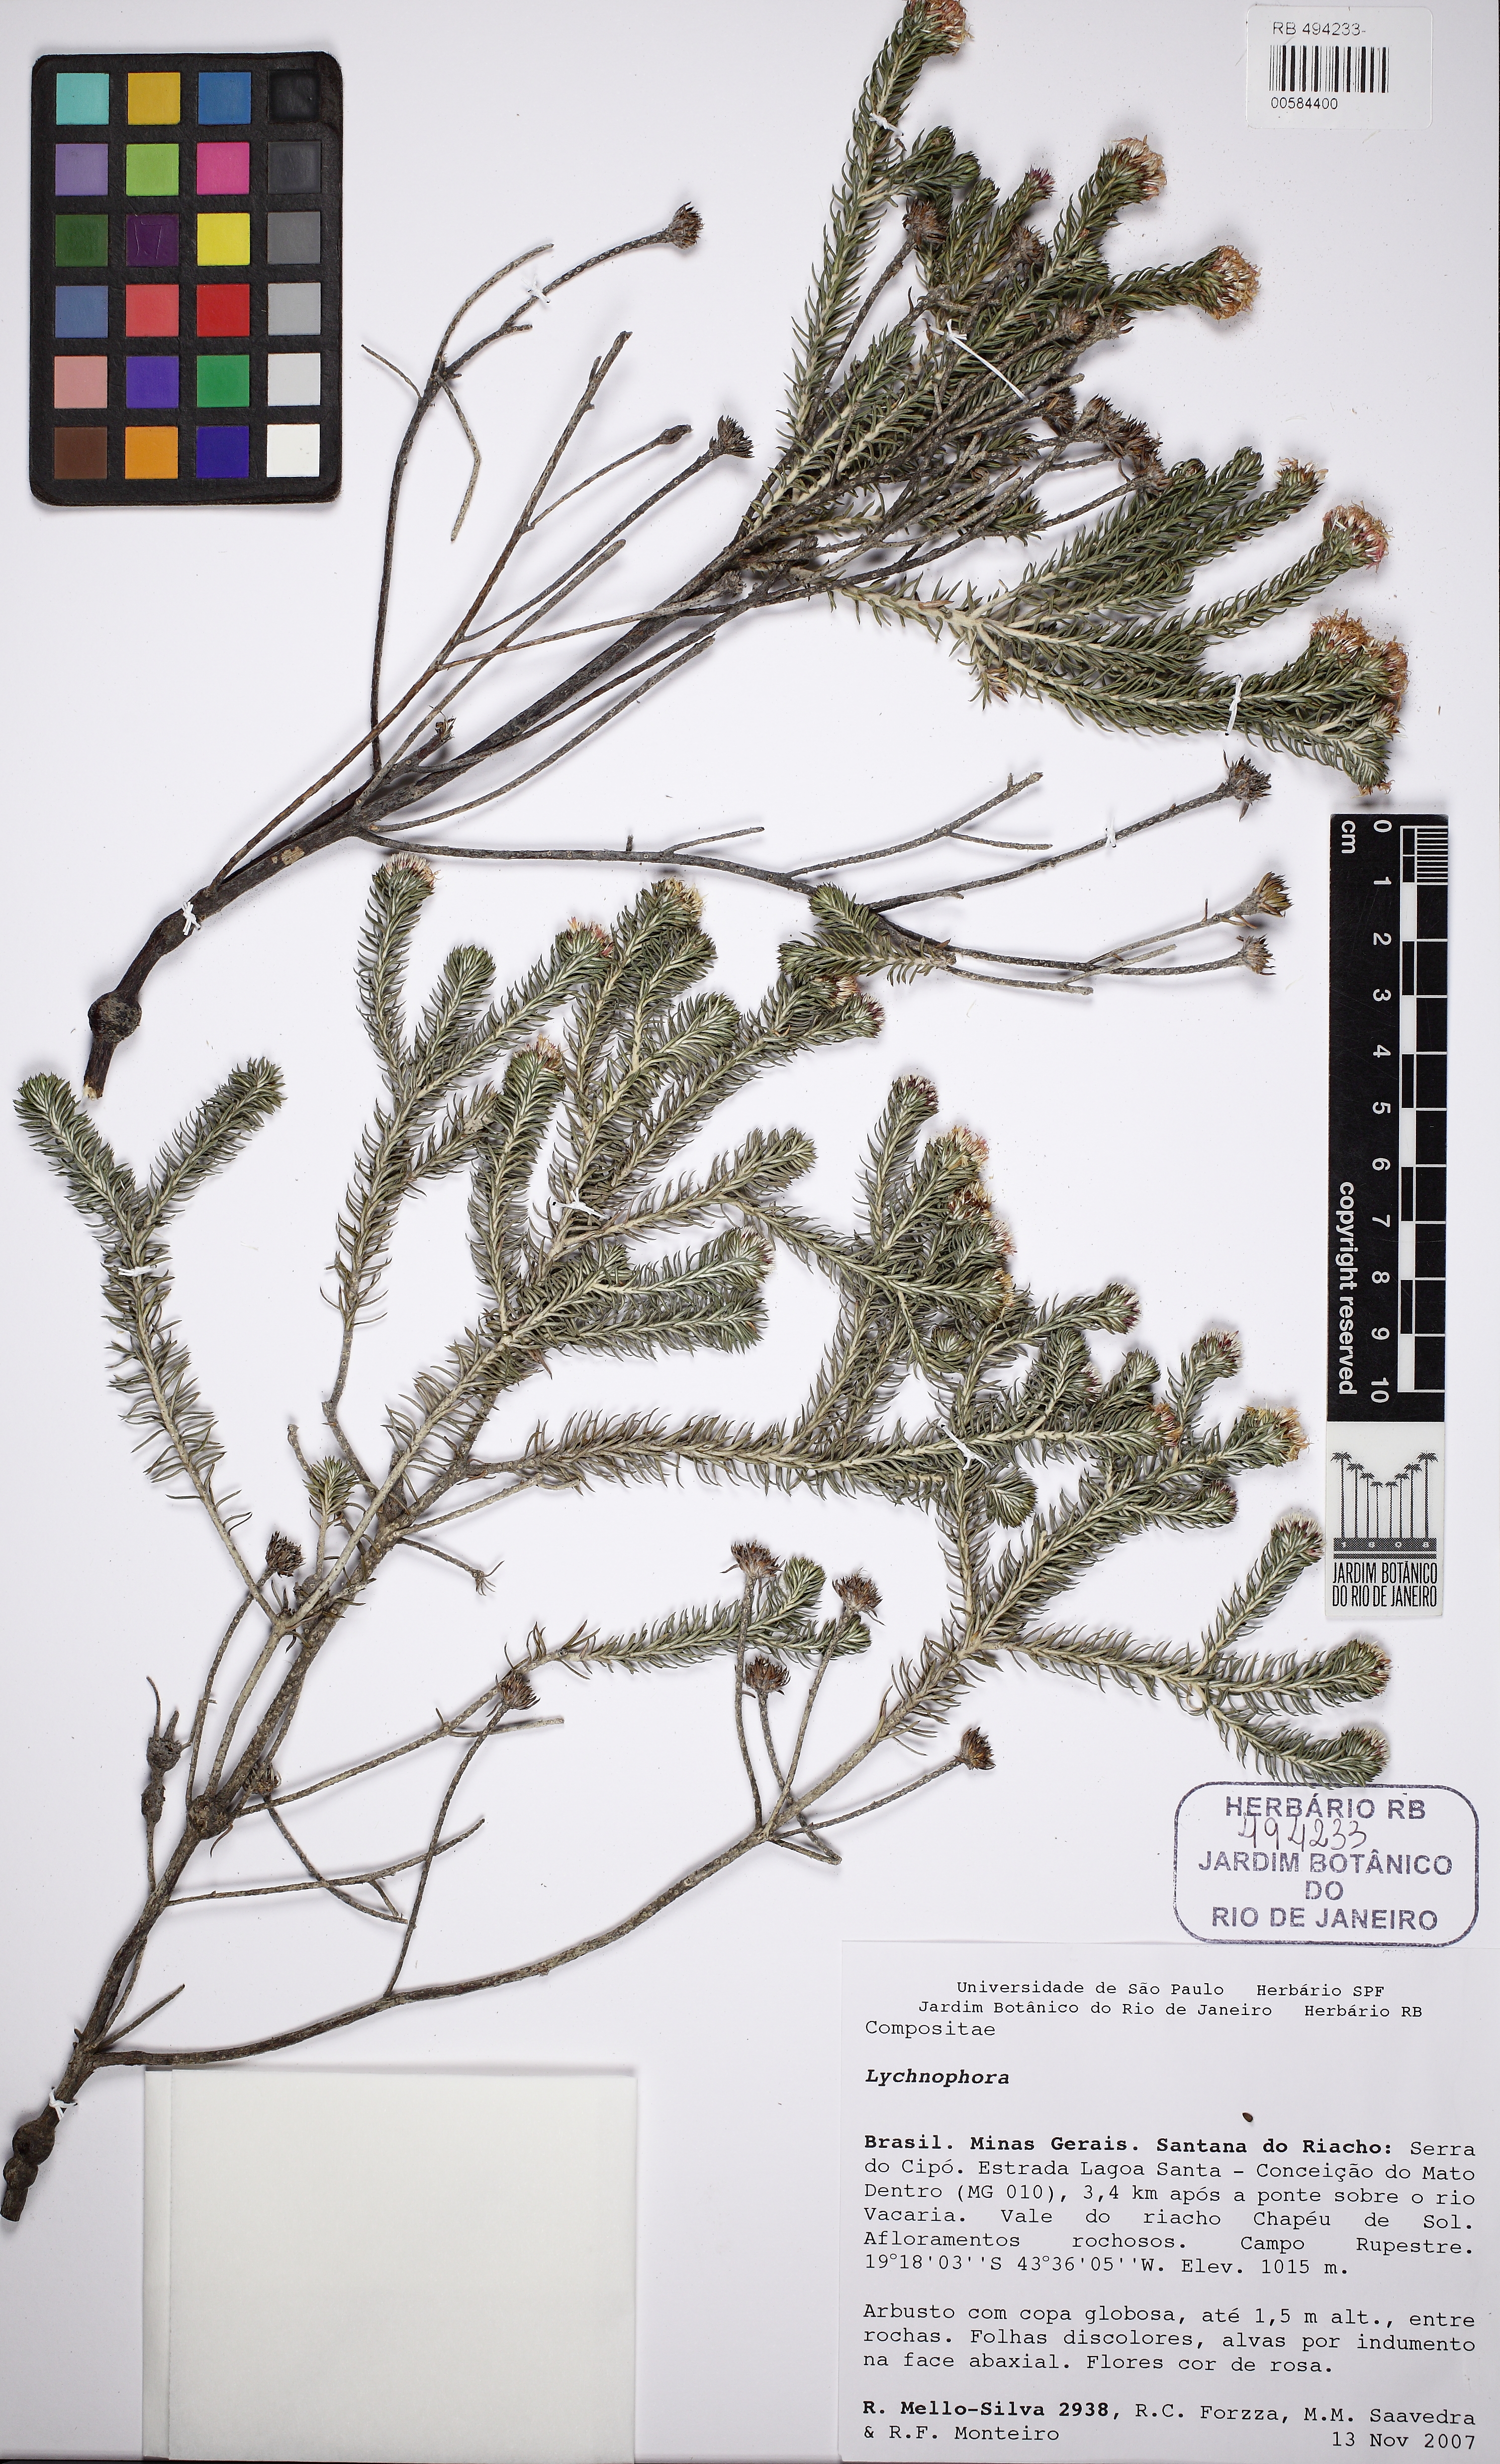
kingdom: Plantae
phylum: Tracheophyta
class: Magnoliopsida
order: Asterales
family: Asteraceae
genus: Lychnophora
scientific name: Lychnophora passerina
